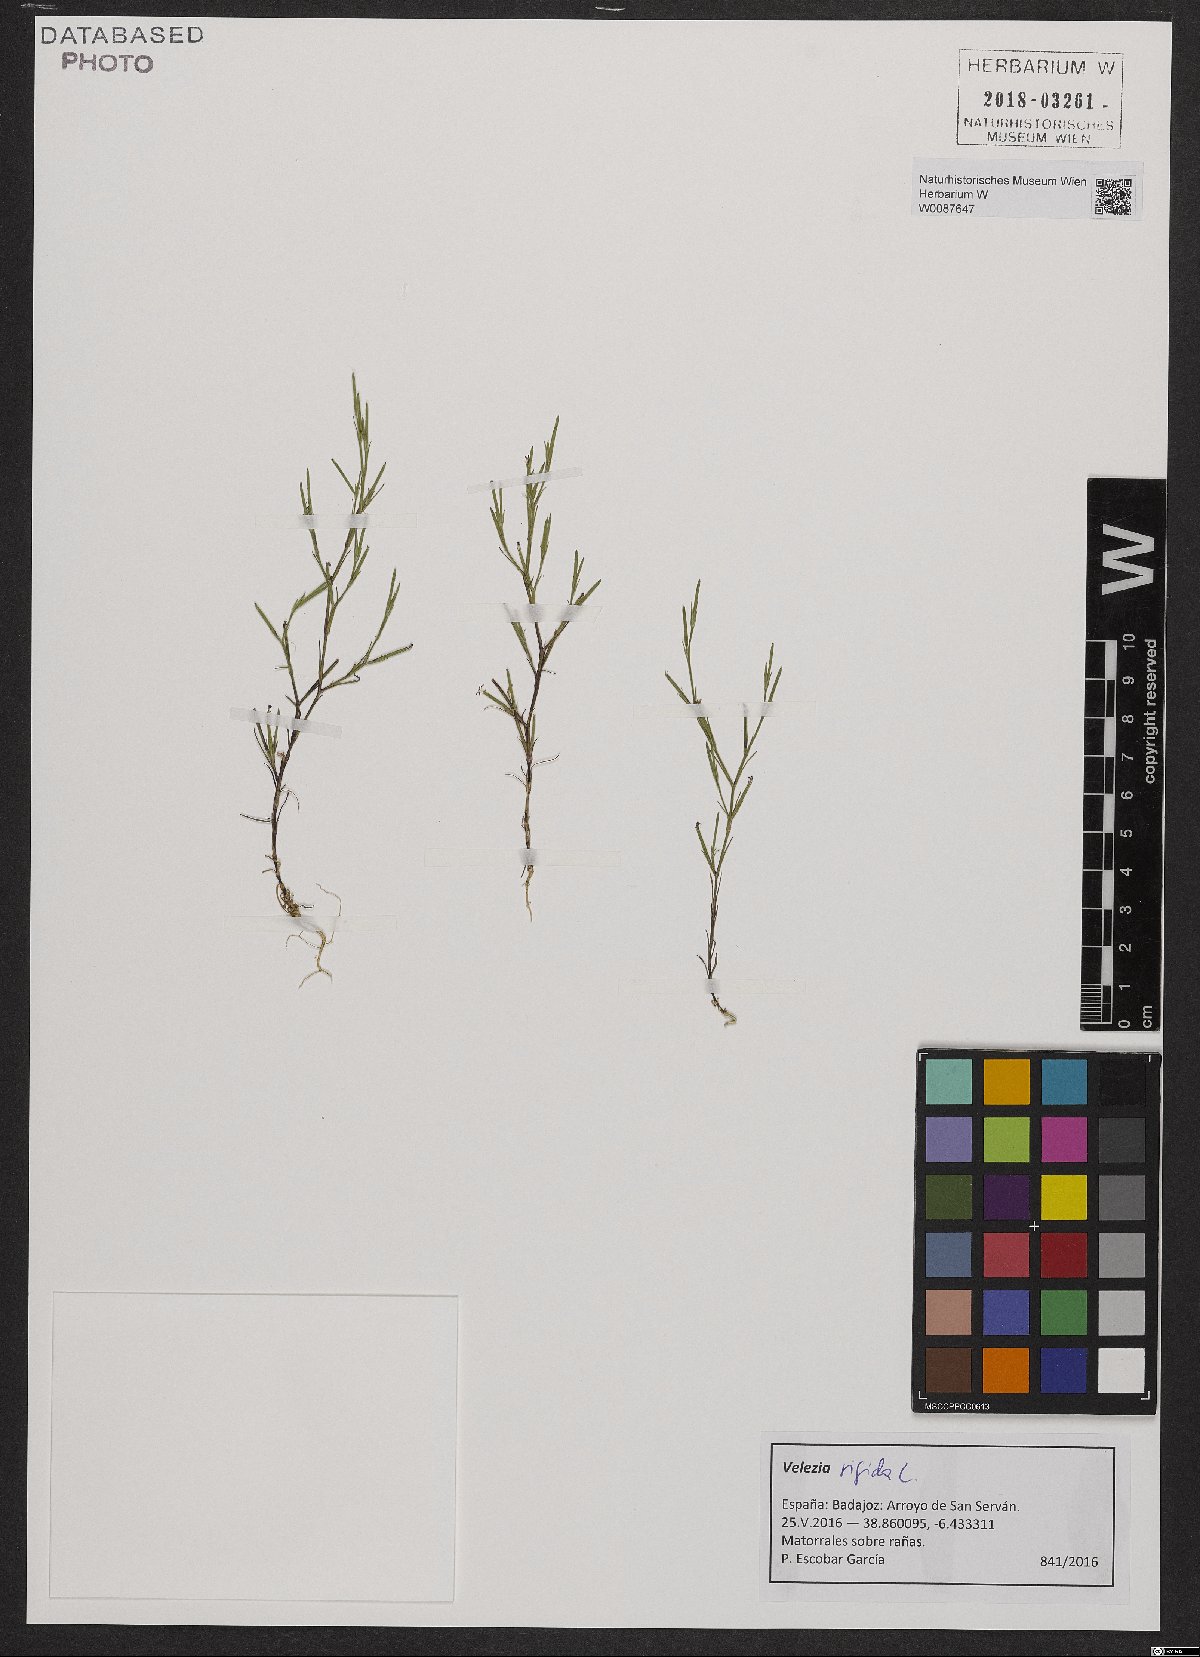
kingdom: Plantae
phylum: Tracheophyta
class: Magnoliopsida
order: Caryophyllales
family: Caryophyllaceae
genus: Dianthus
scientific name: Dianthus nudiflorus
